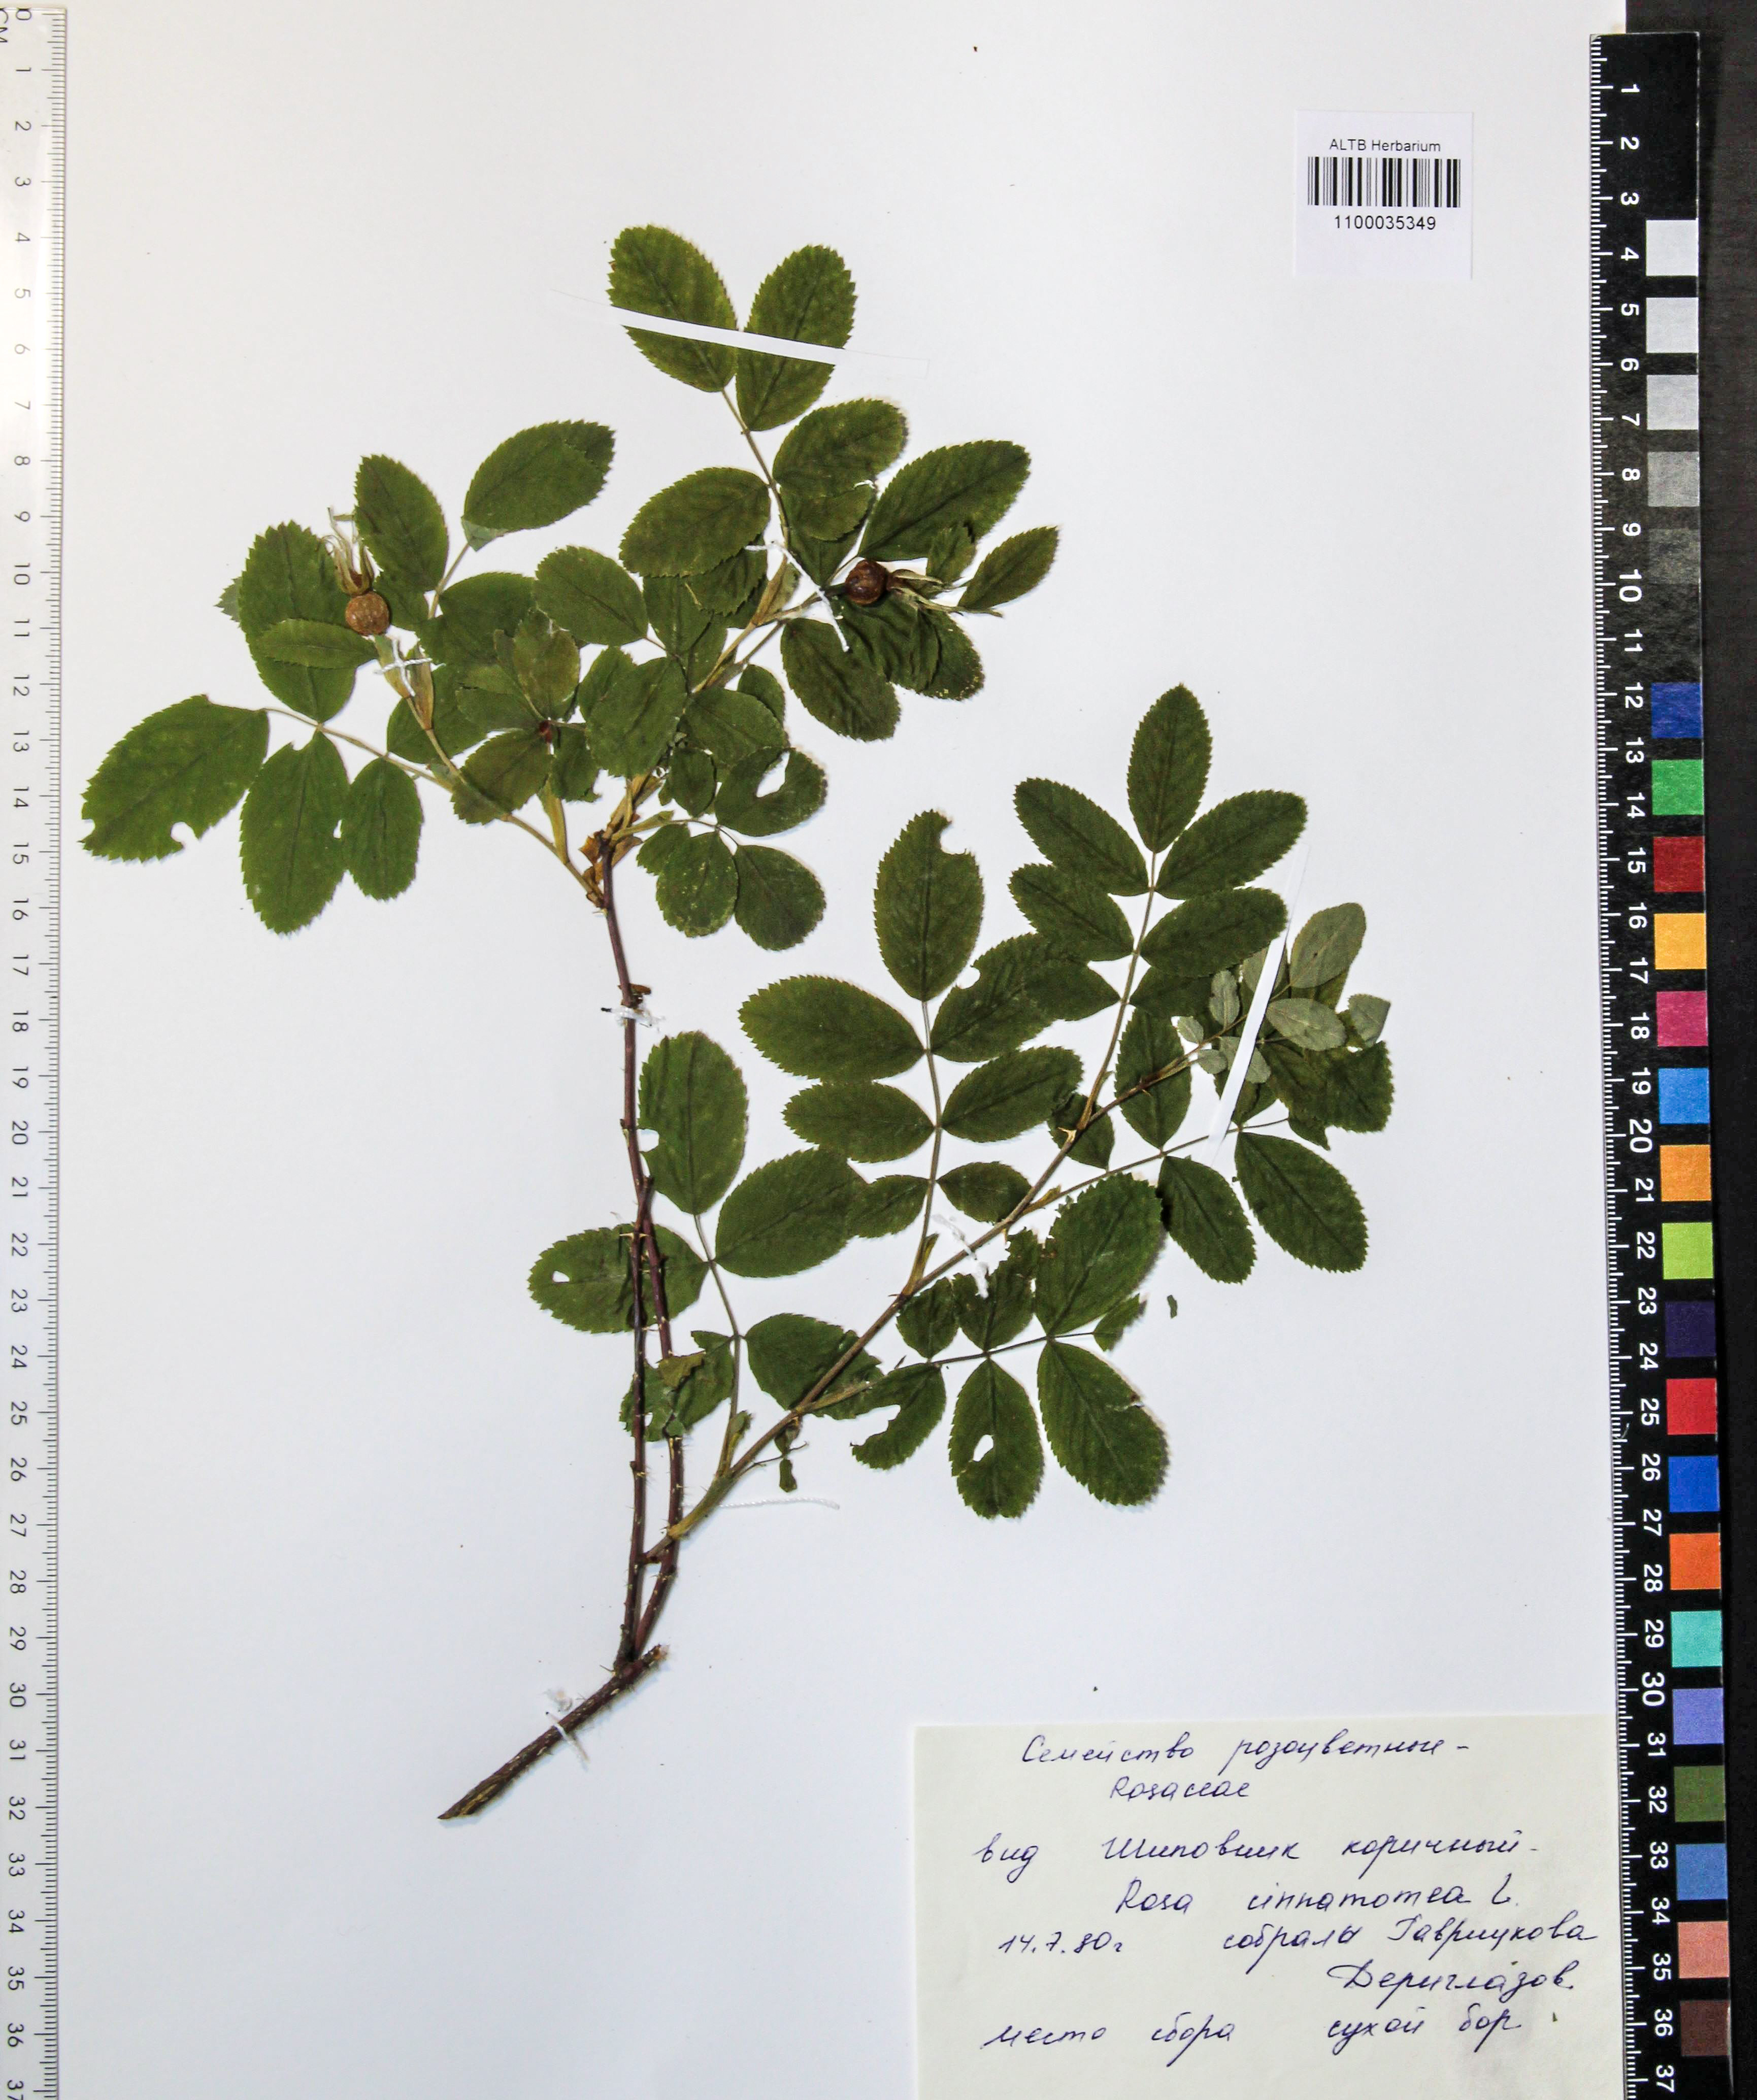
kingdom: Plantae
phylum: Tracheophyta
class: Magnoliopsida
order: Rosales
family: Rosaceae
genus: Rosa
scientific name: Rosa pendulina
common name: Alpine rose
